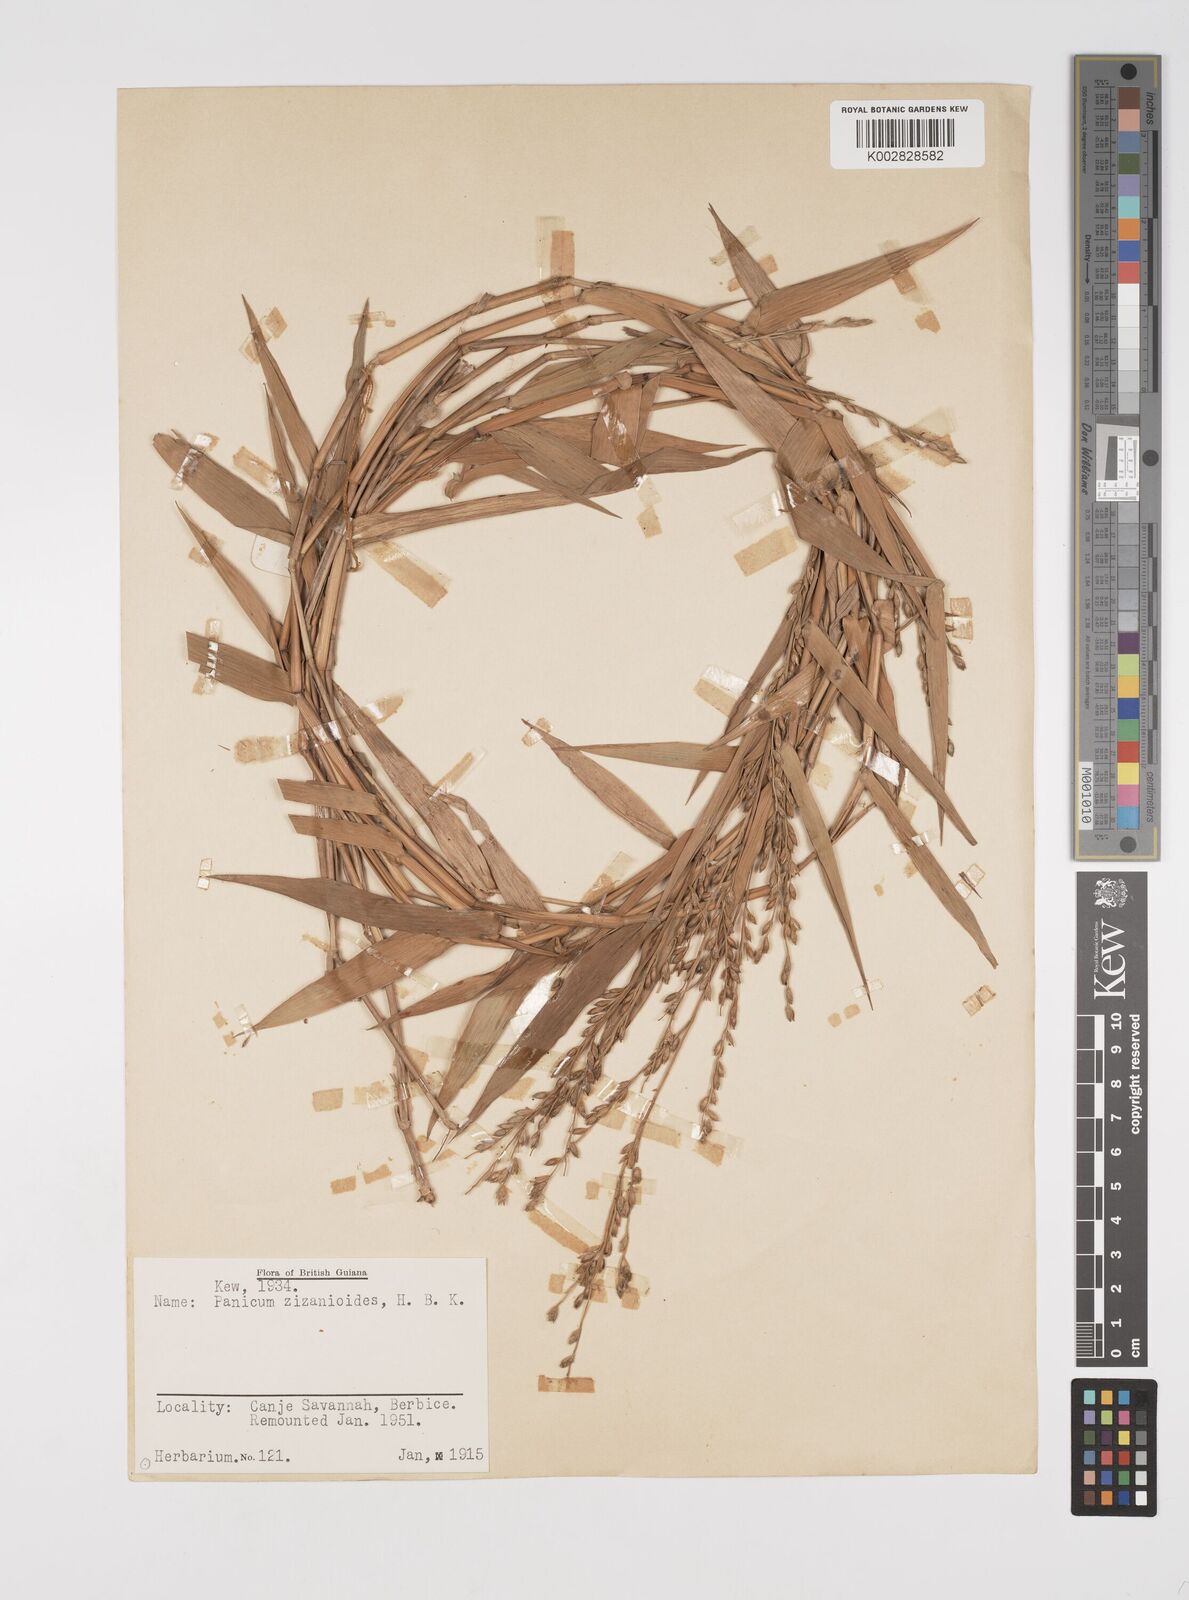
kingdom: Plantae
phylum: Tracheophyta
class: Liliopsida
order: Poales
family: Poaceae
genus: Acroceras
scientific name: Acroceras zizanioides
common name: Oat grass
